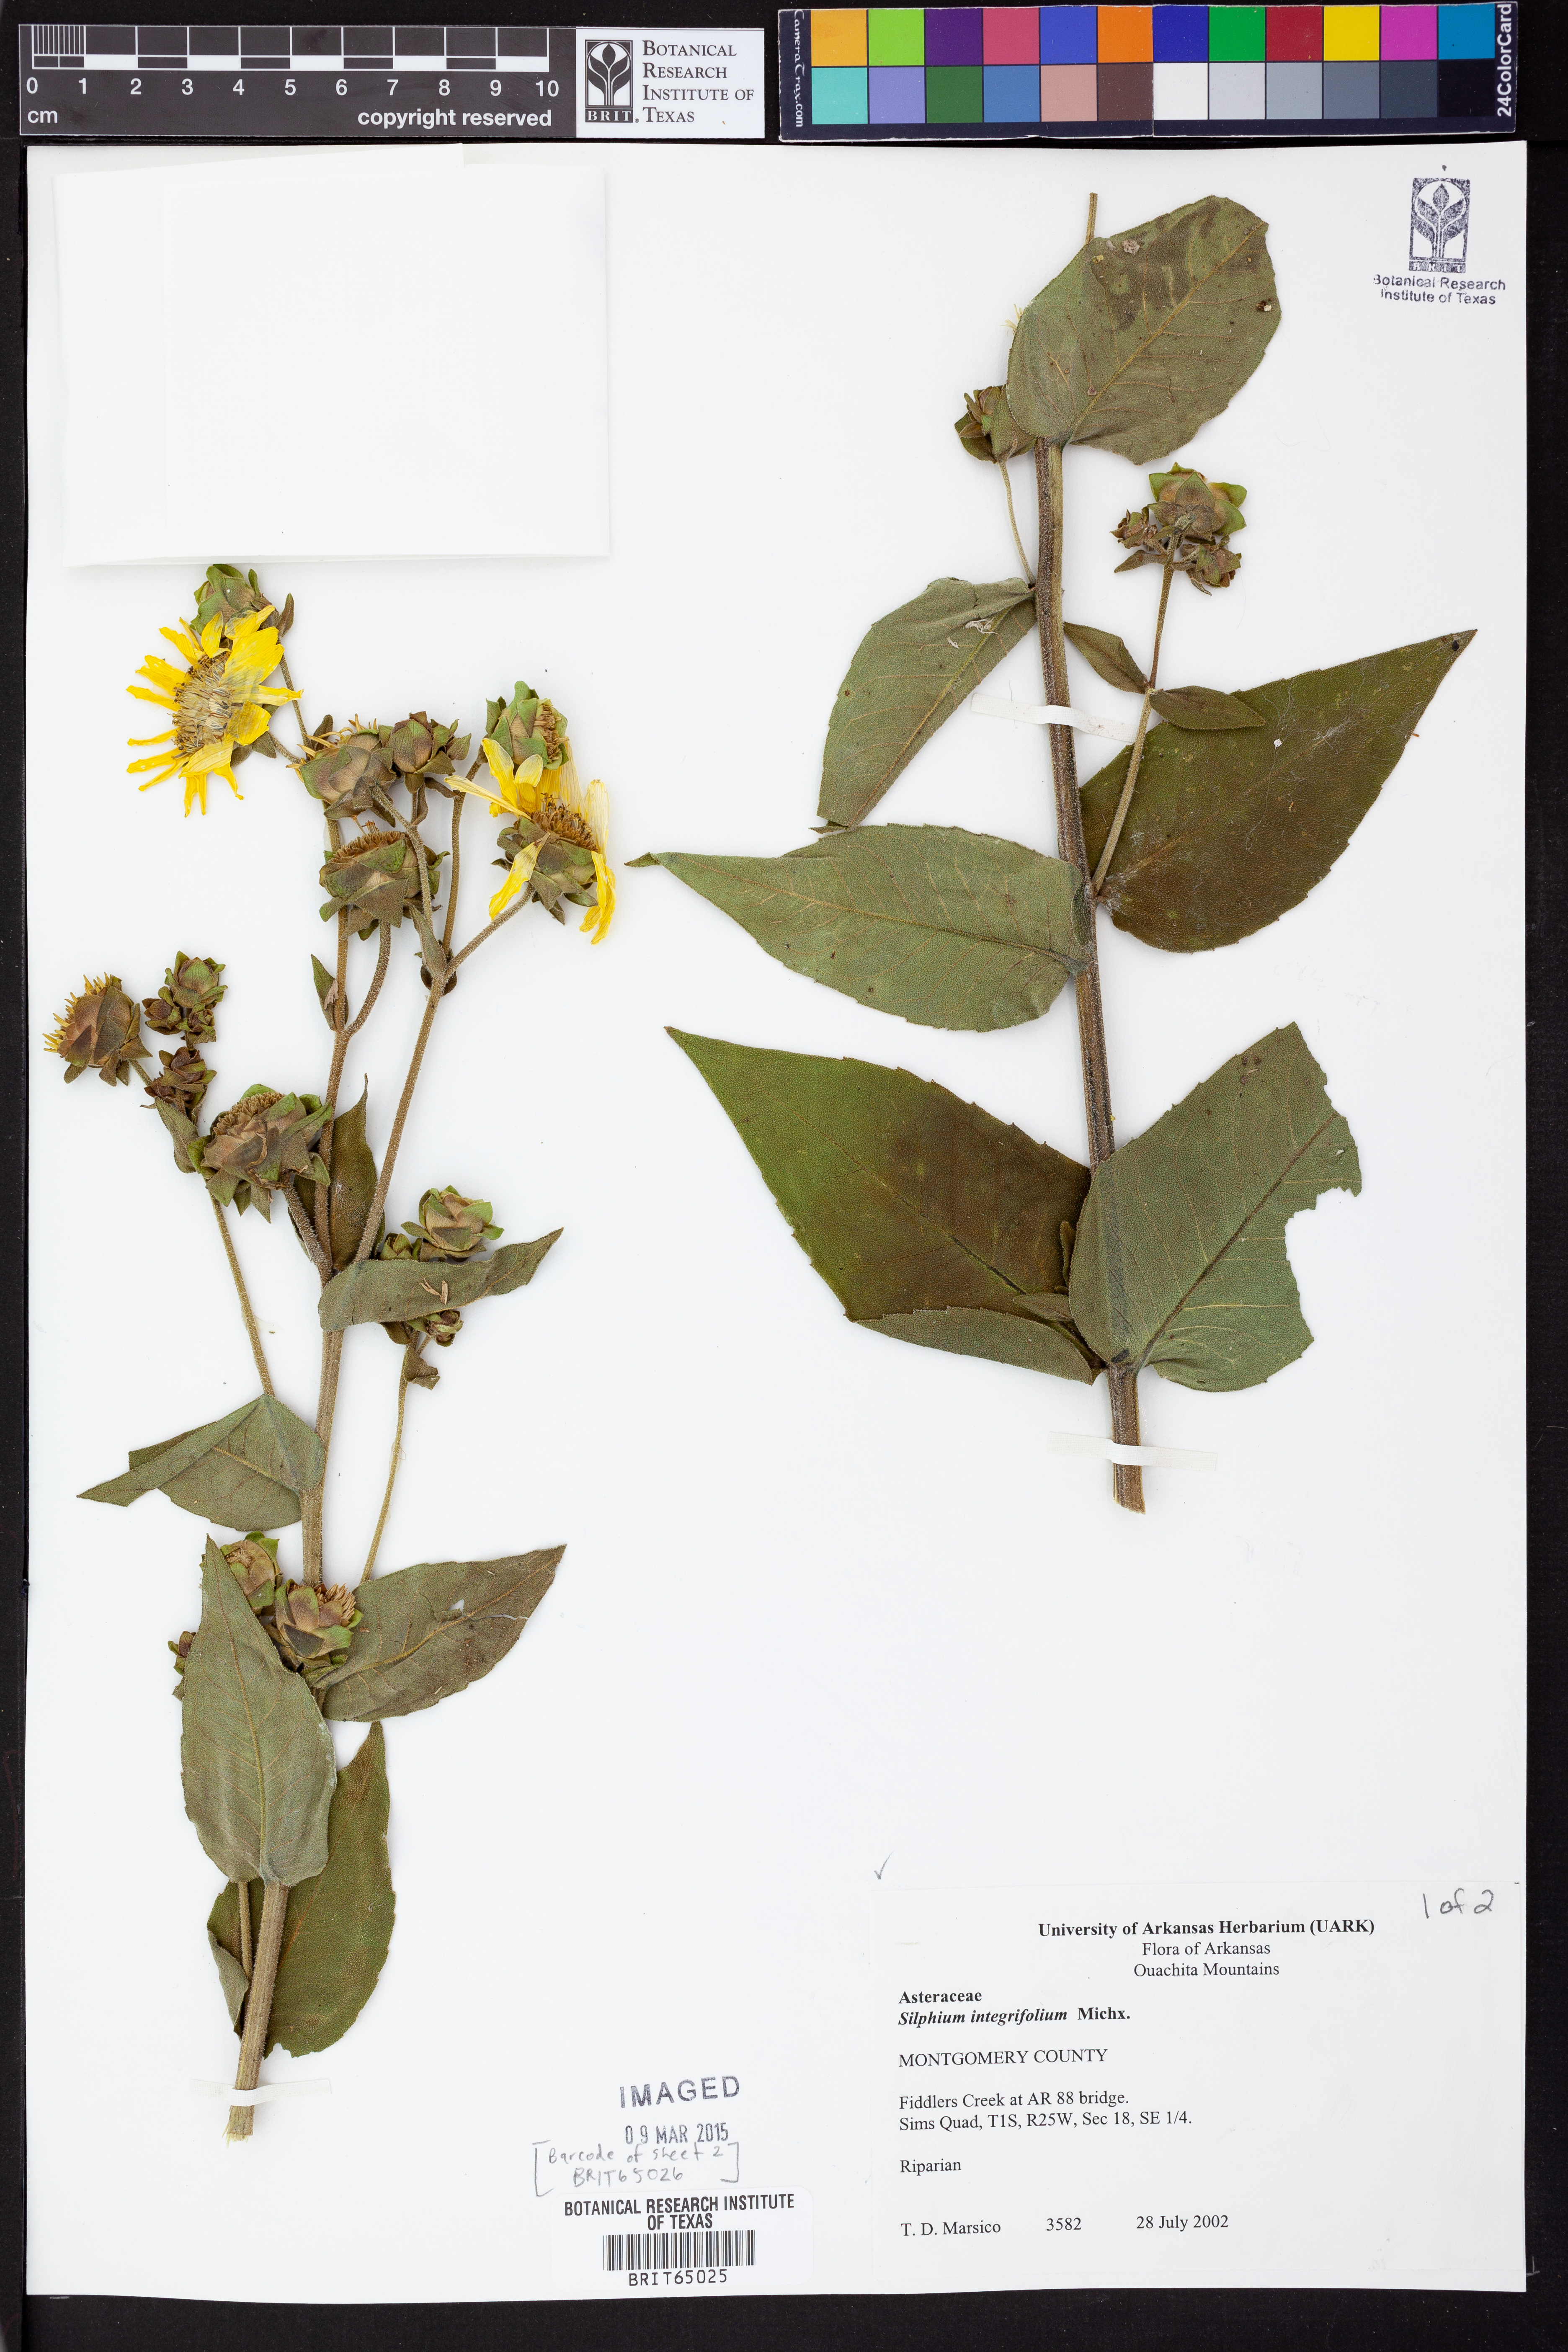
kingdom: Plantae
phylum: Tracheophyta
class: Magnoliopsida
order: Asterales
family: Asteraceae
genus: Silphium
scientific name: Silphium integrifolium
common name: Whole-leaf rosinweed
